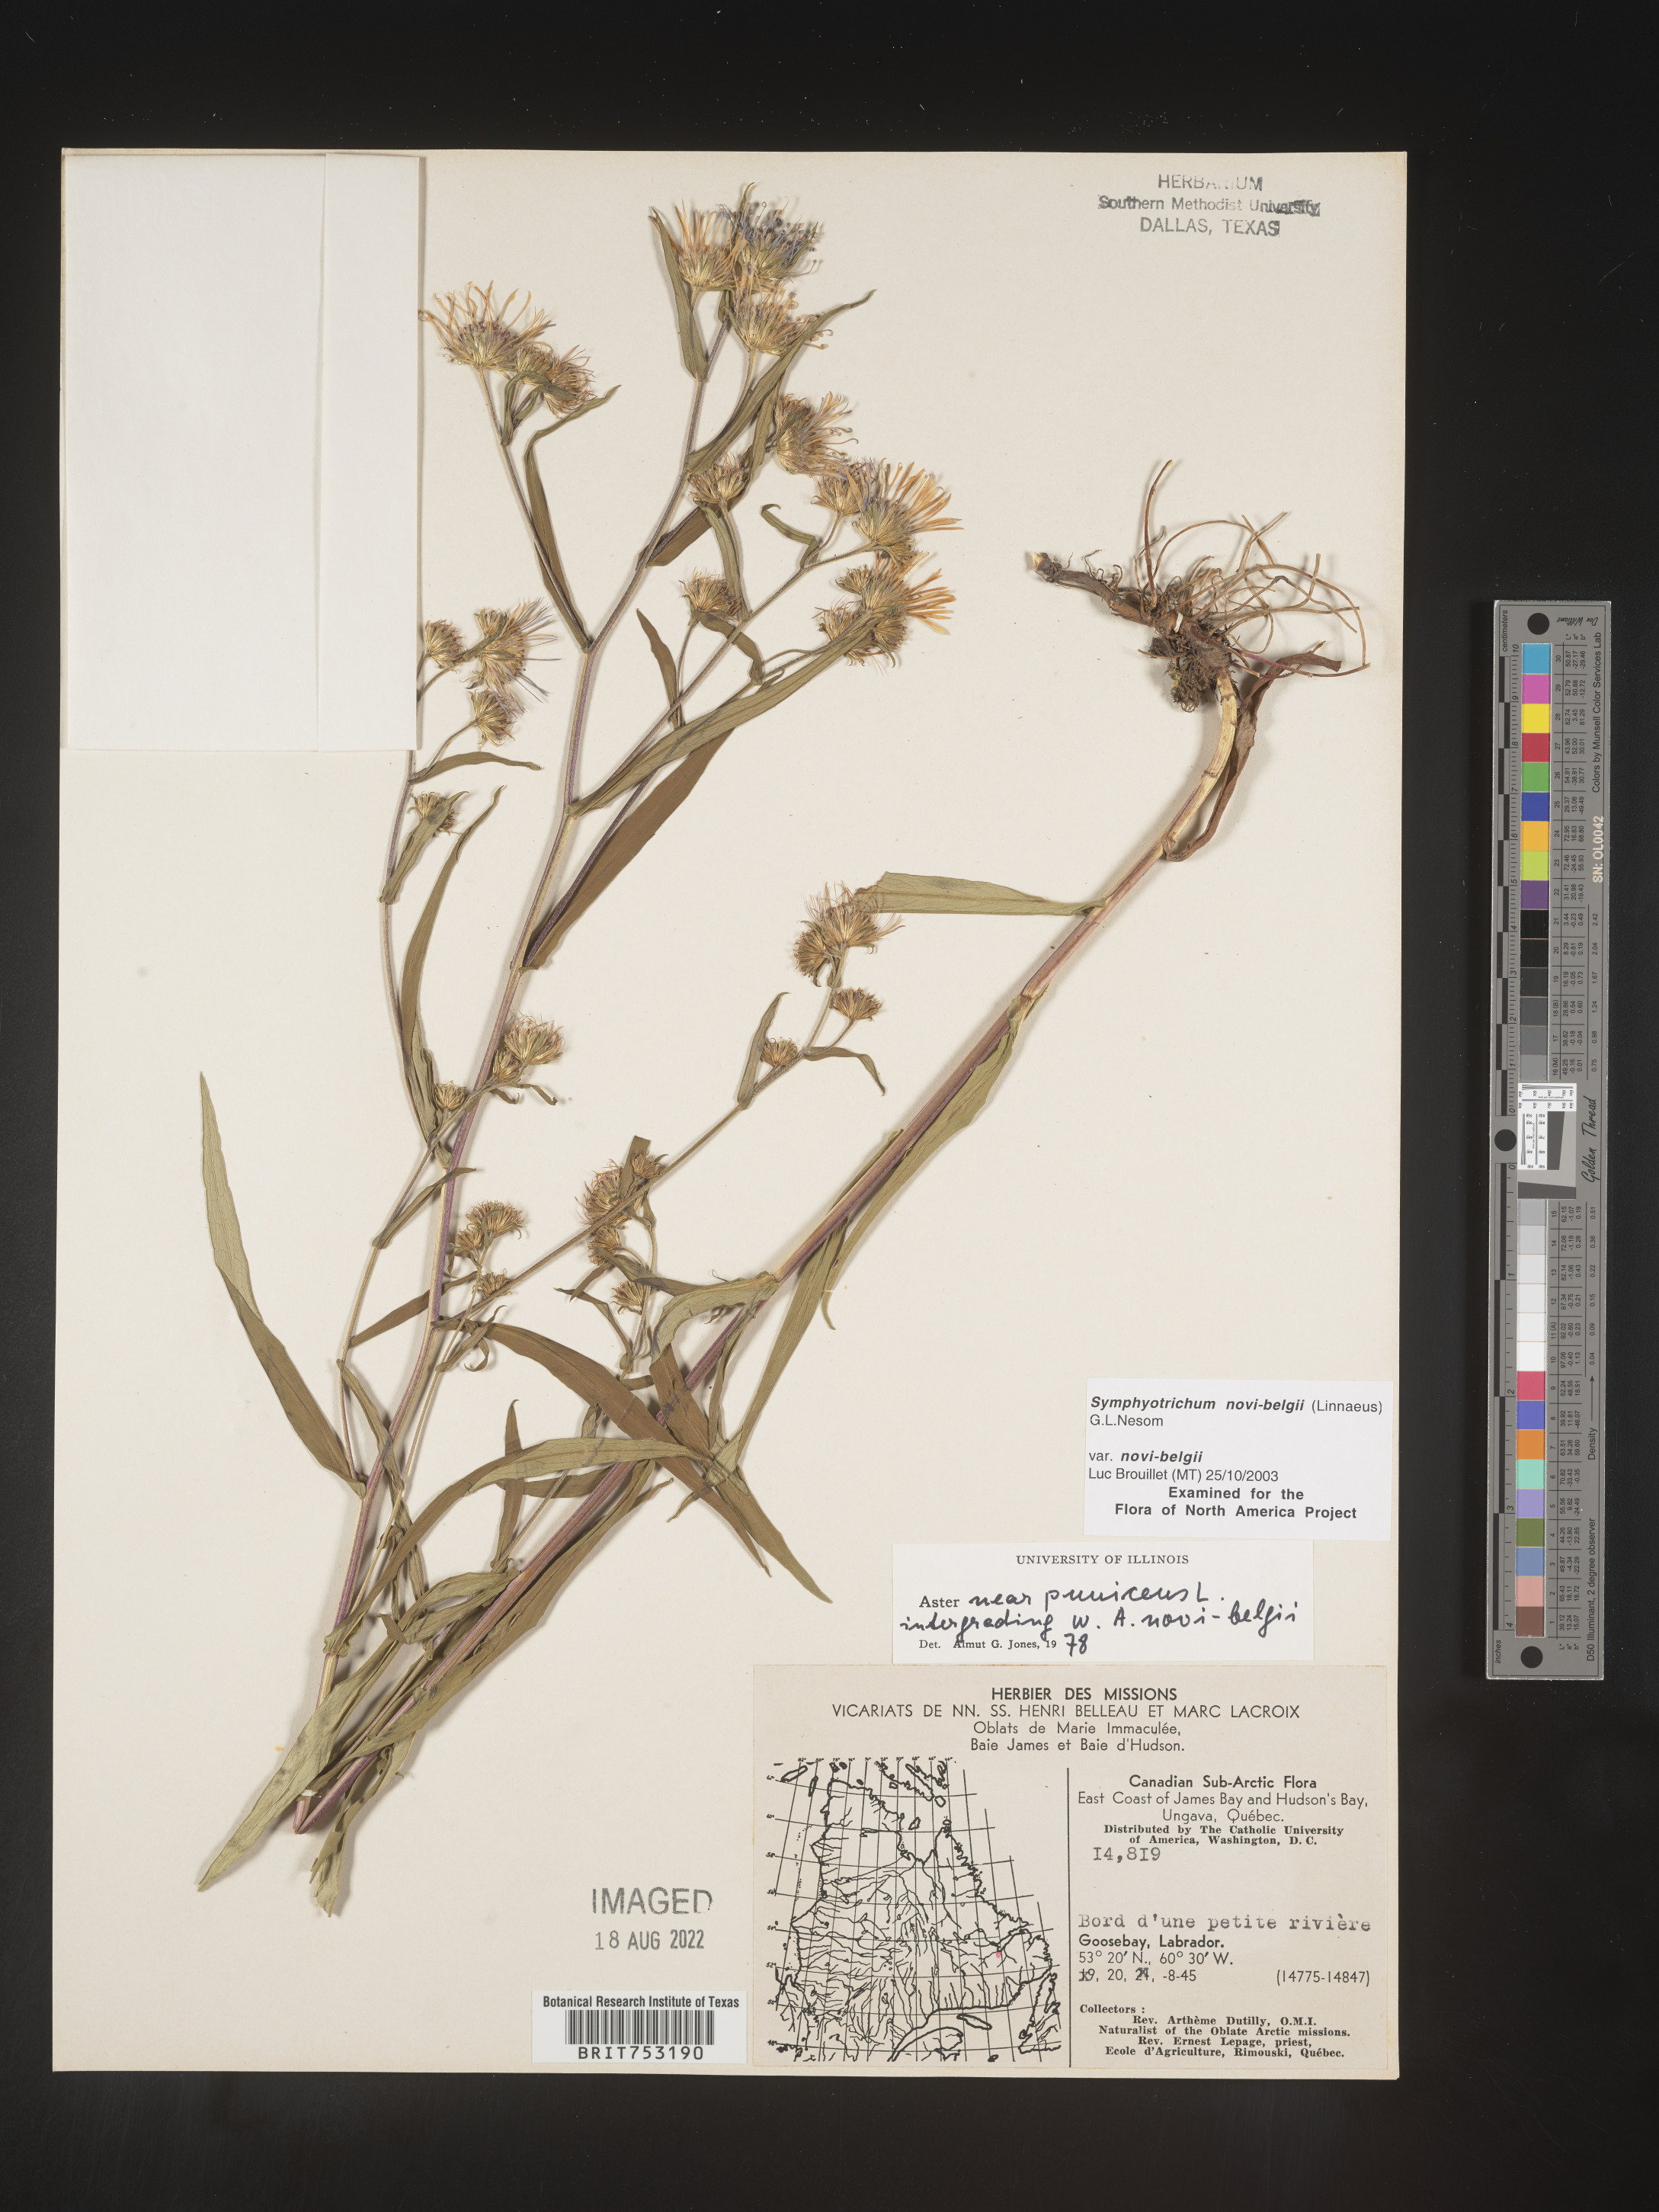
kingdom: Plantae
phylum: Tracheophyta
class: Magnoliopsida
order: Asterales
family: Asteraceae
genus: Symphyotrichum
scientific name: Symphyotrichum novi-belgii
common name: Michaelmas daisy
